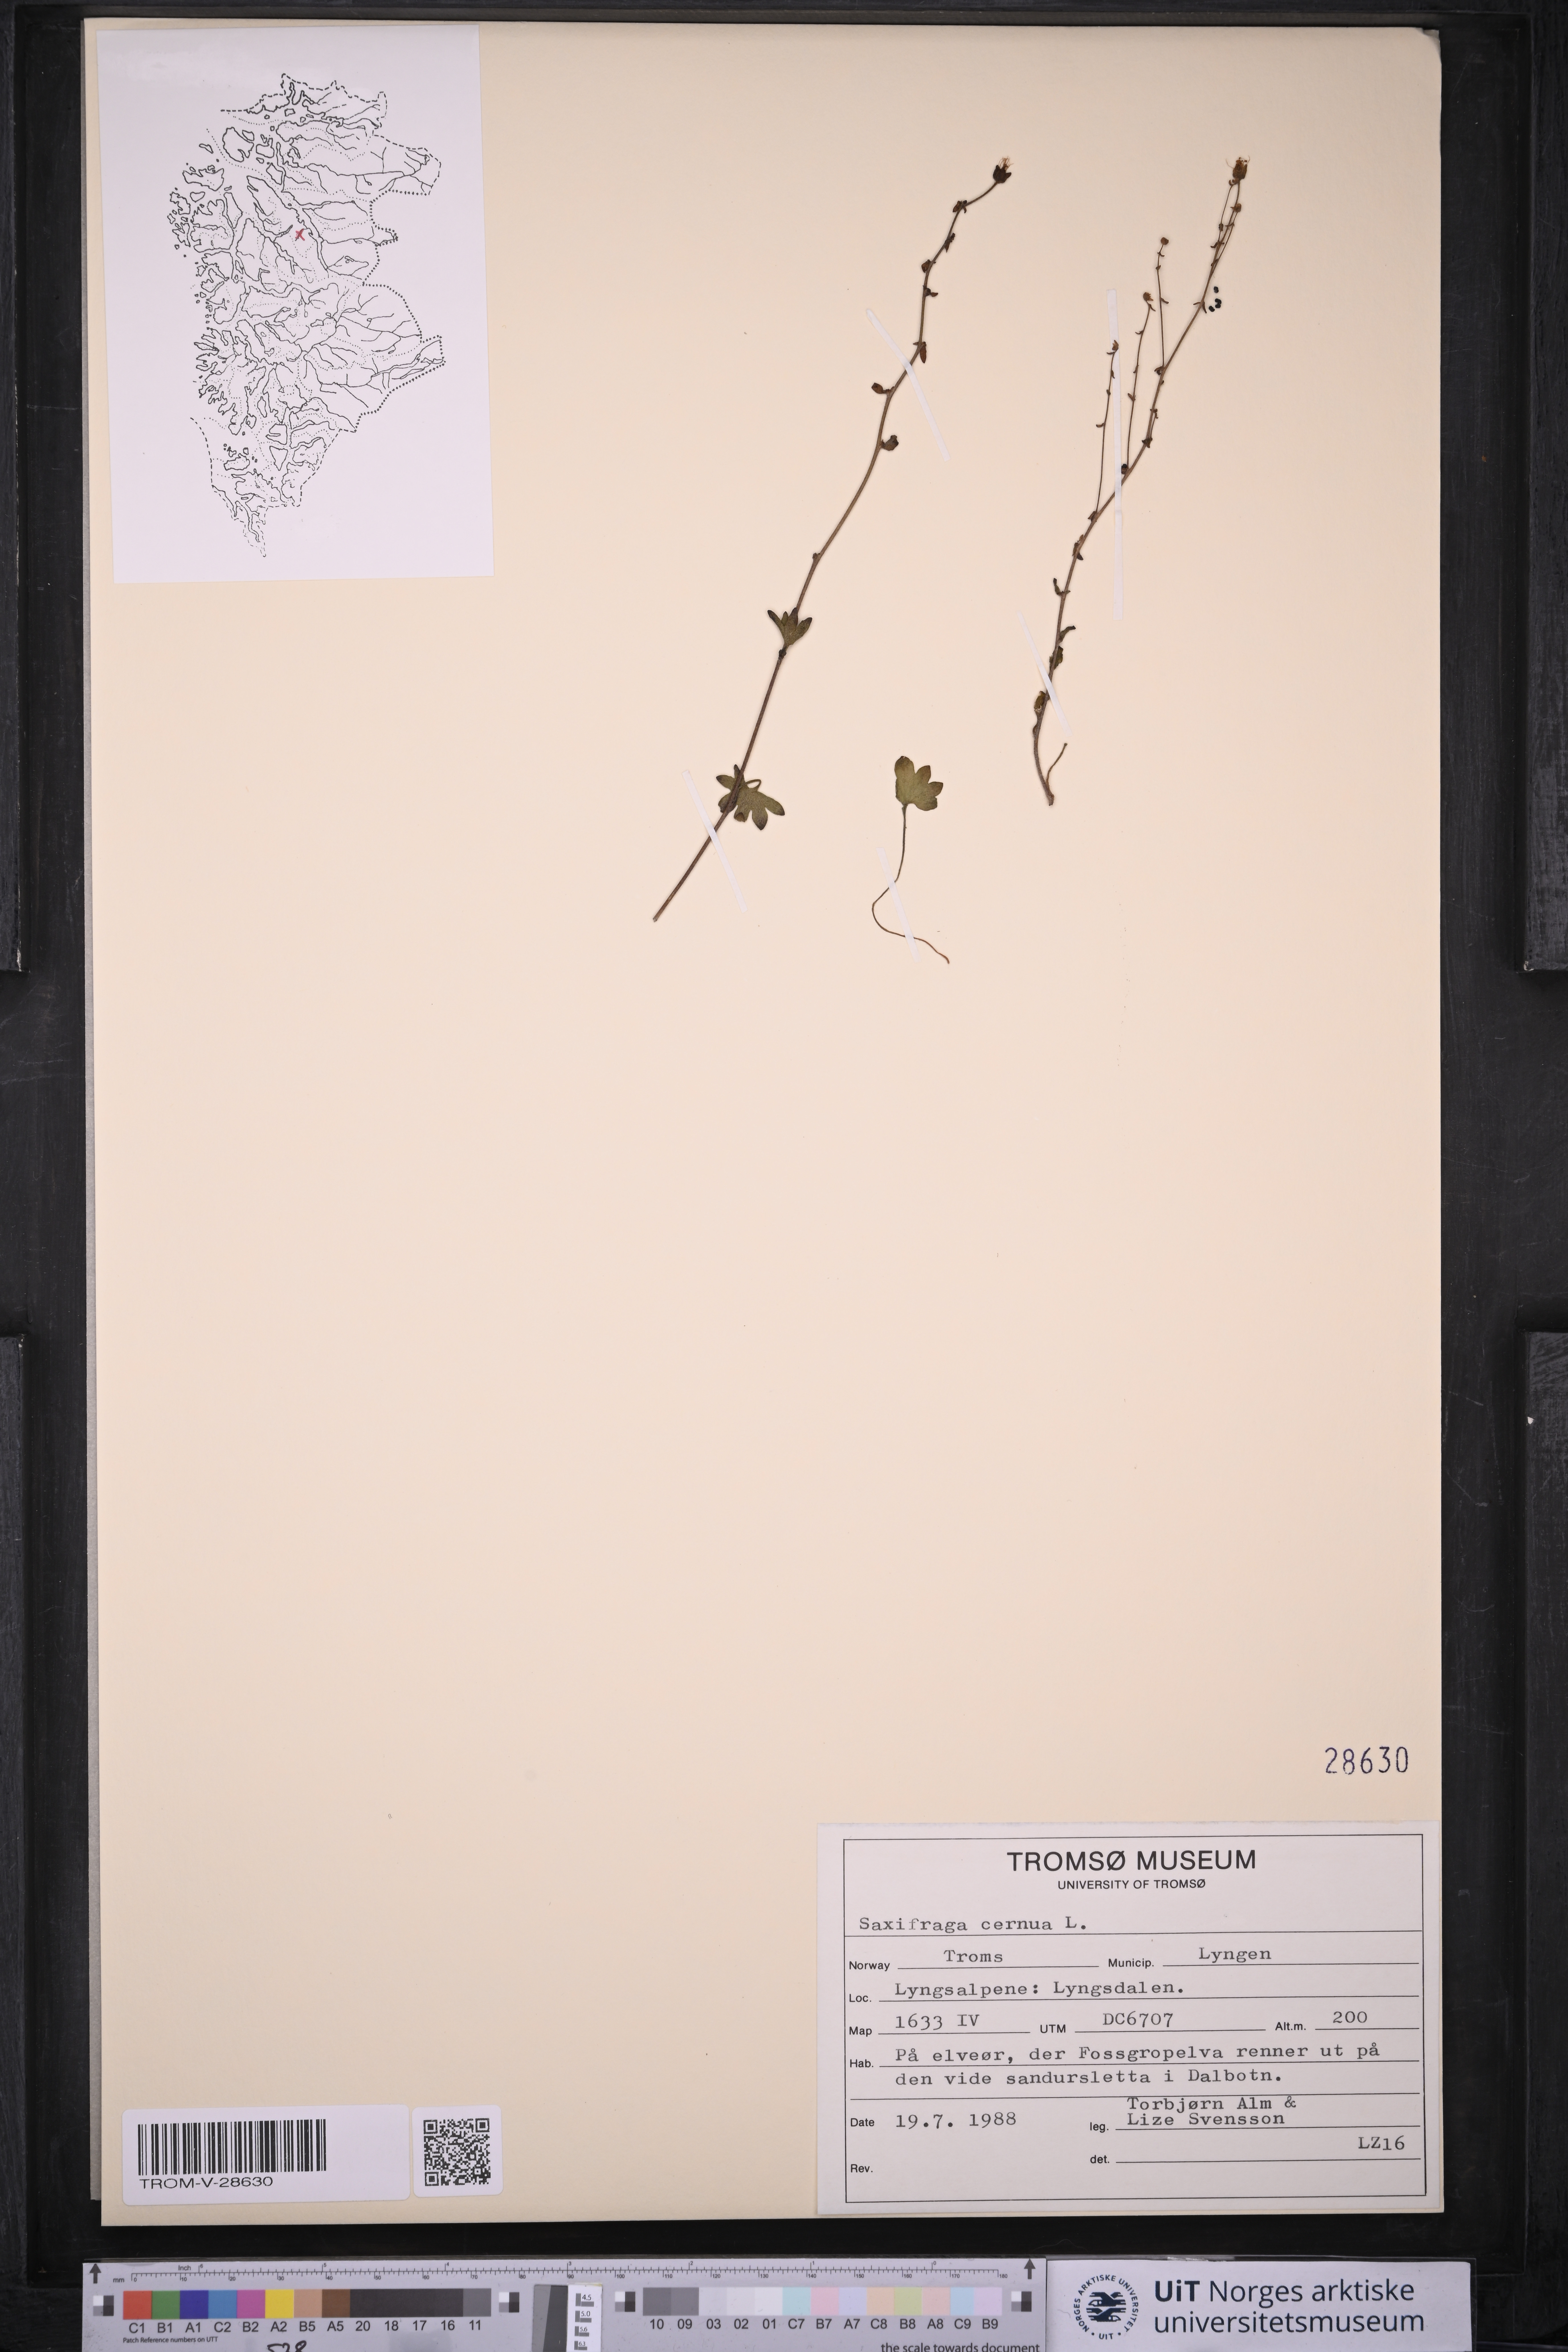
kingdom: Plantae
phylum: Tracheophyta
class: Magnoliopsida
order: Saxifragales
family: Saxifragaceae
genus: Saxifraga
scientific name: Saxifraga cernua
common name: Drooping saxifrage
